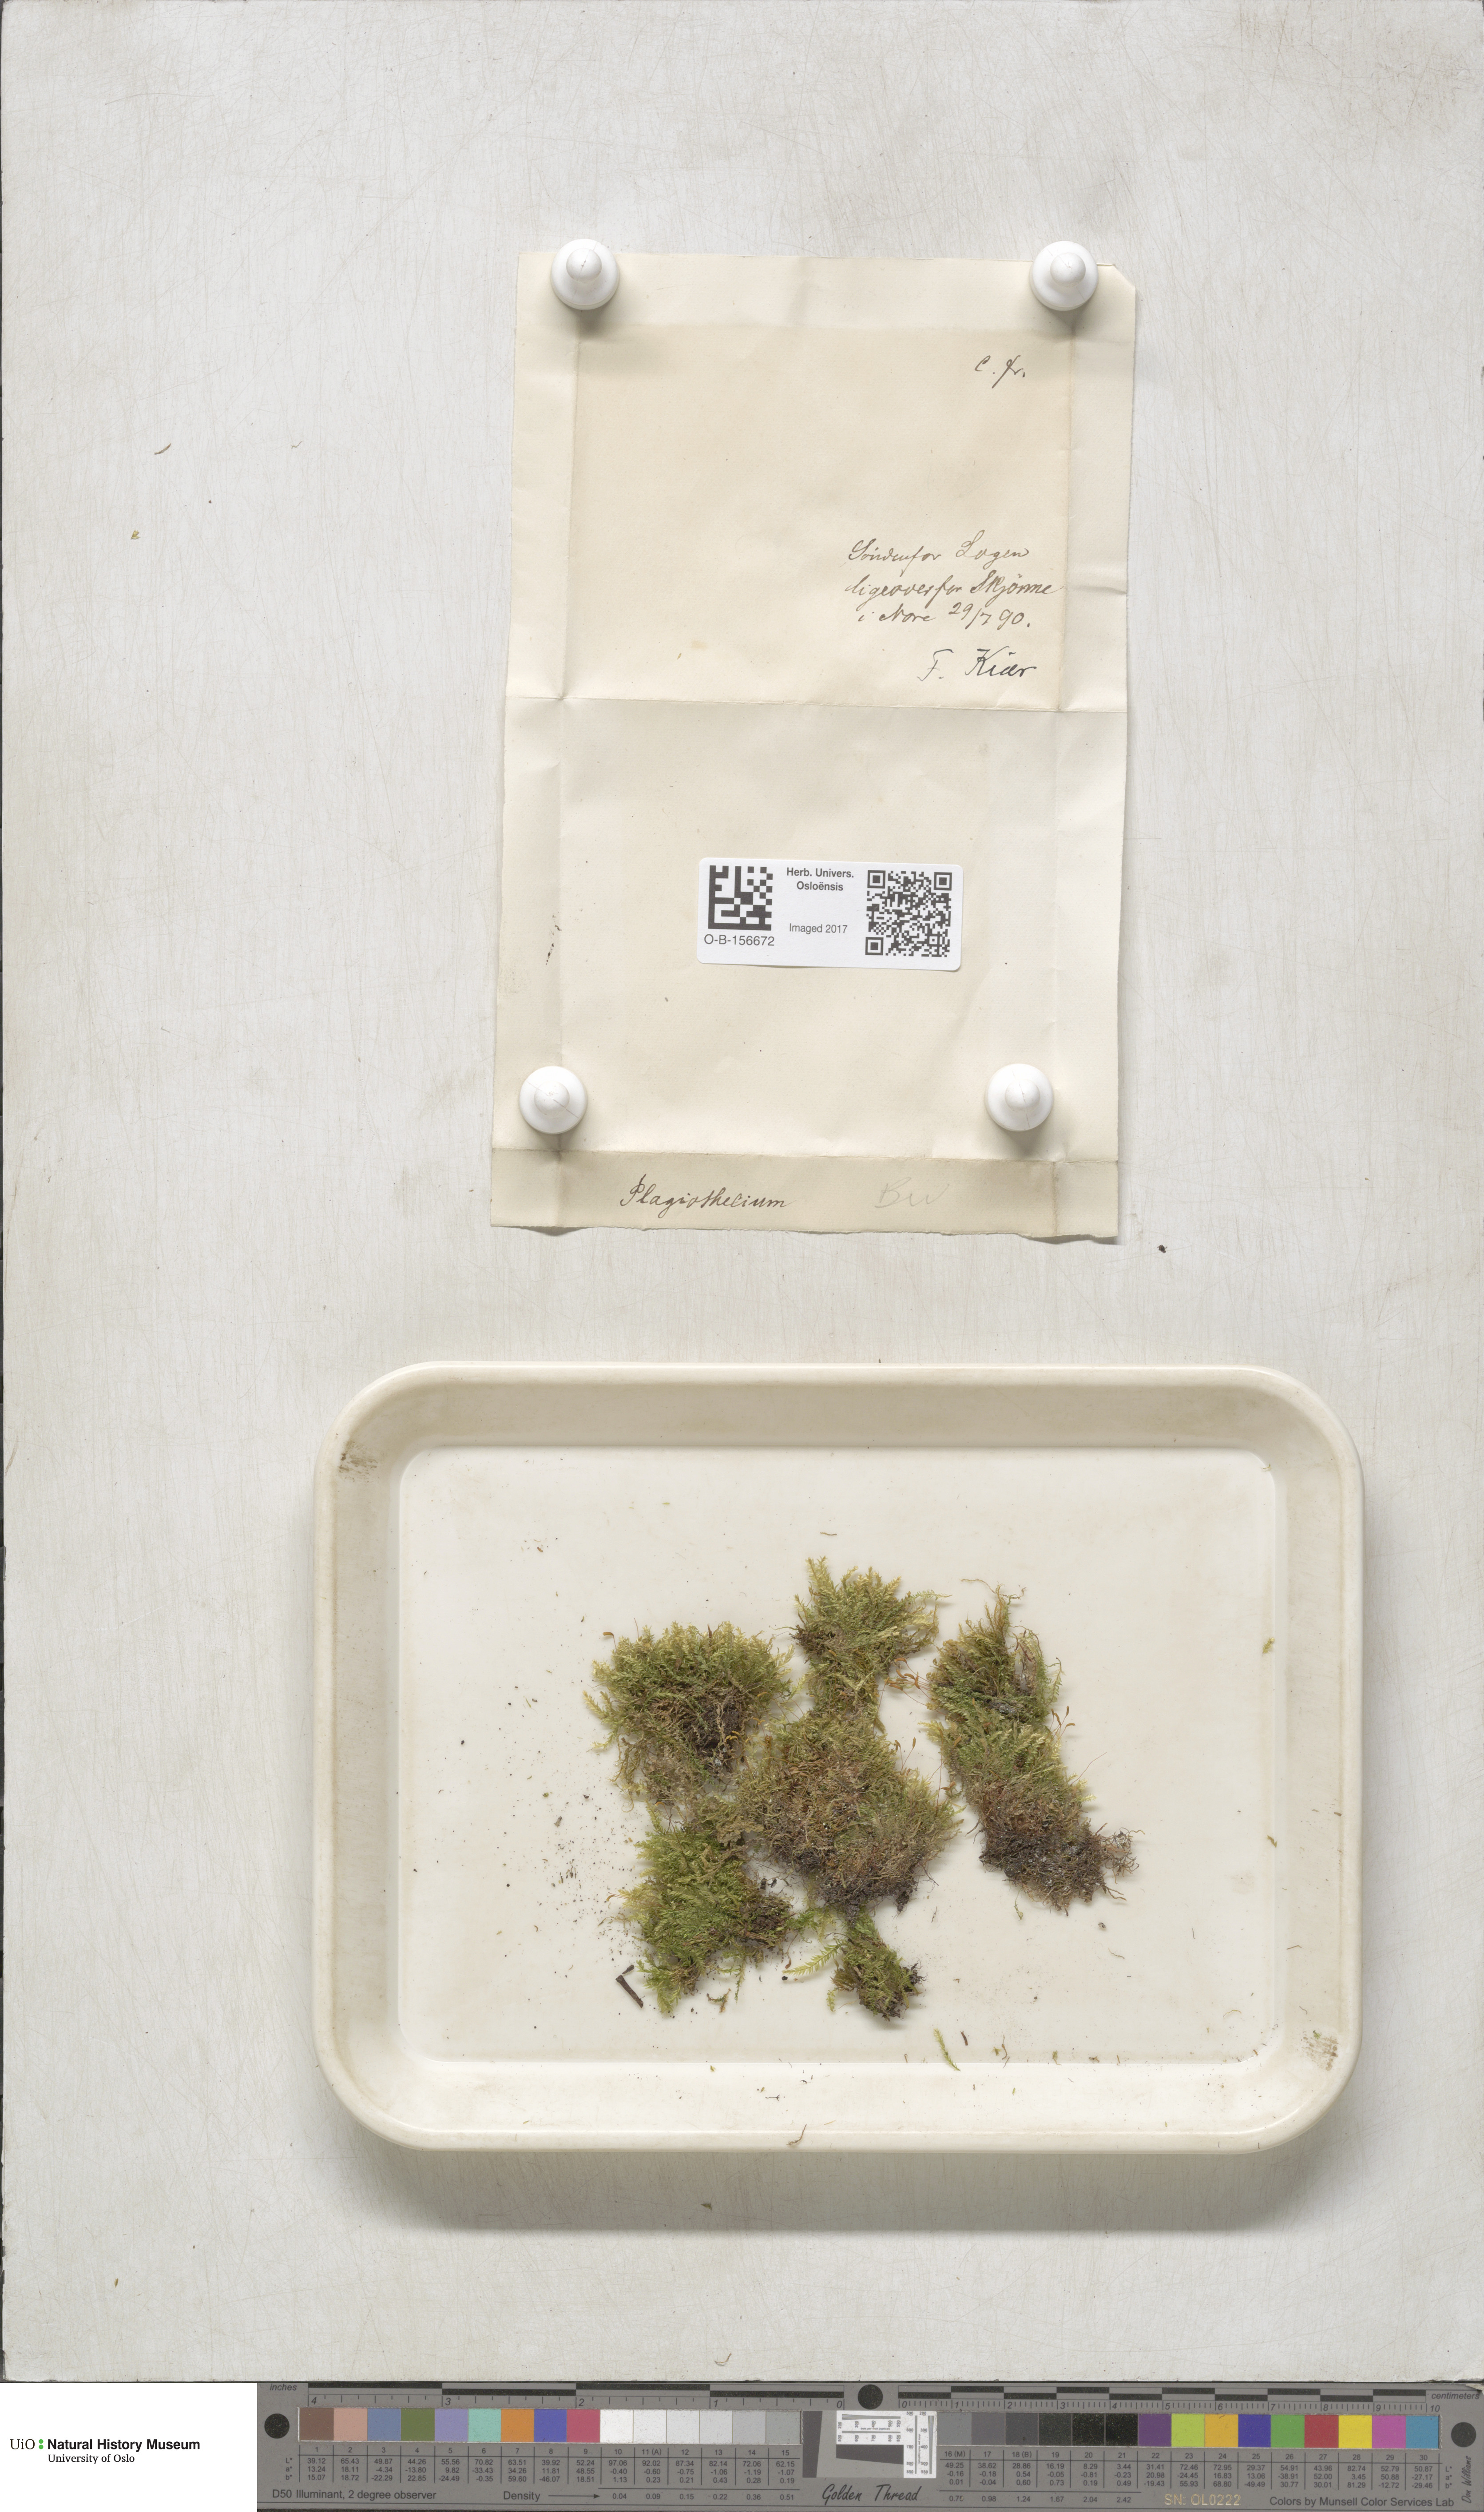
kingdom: Plantae
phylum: Bryophyta
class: Bryopsida
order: Hypnales
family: Plagiotheciaceae
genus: Plagiothecium
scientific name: Plagiothecium
